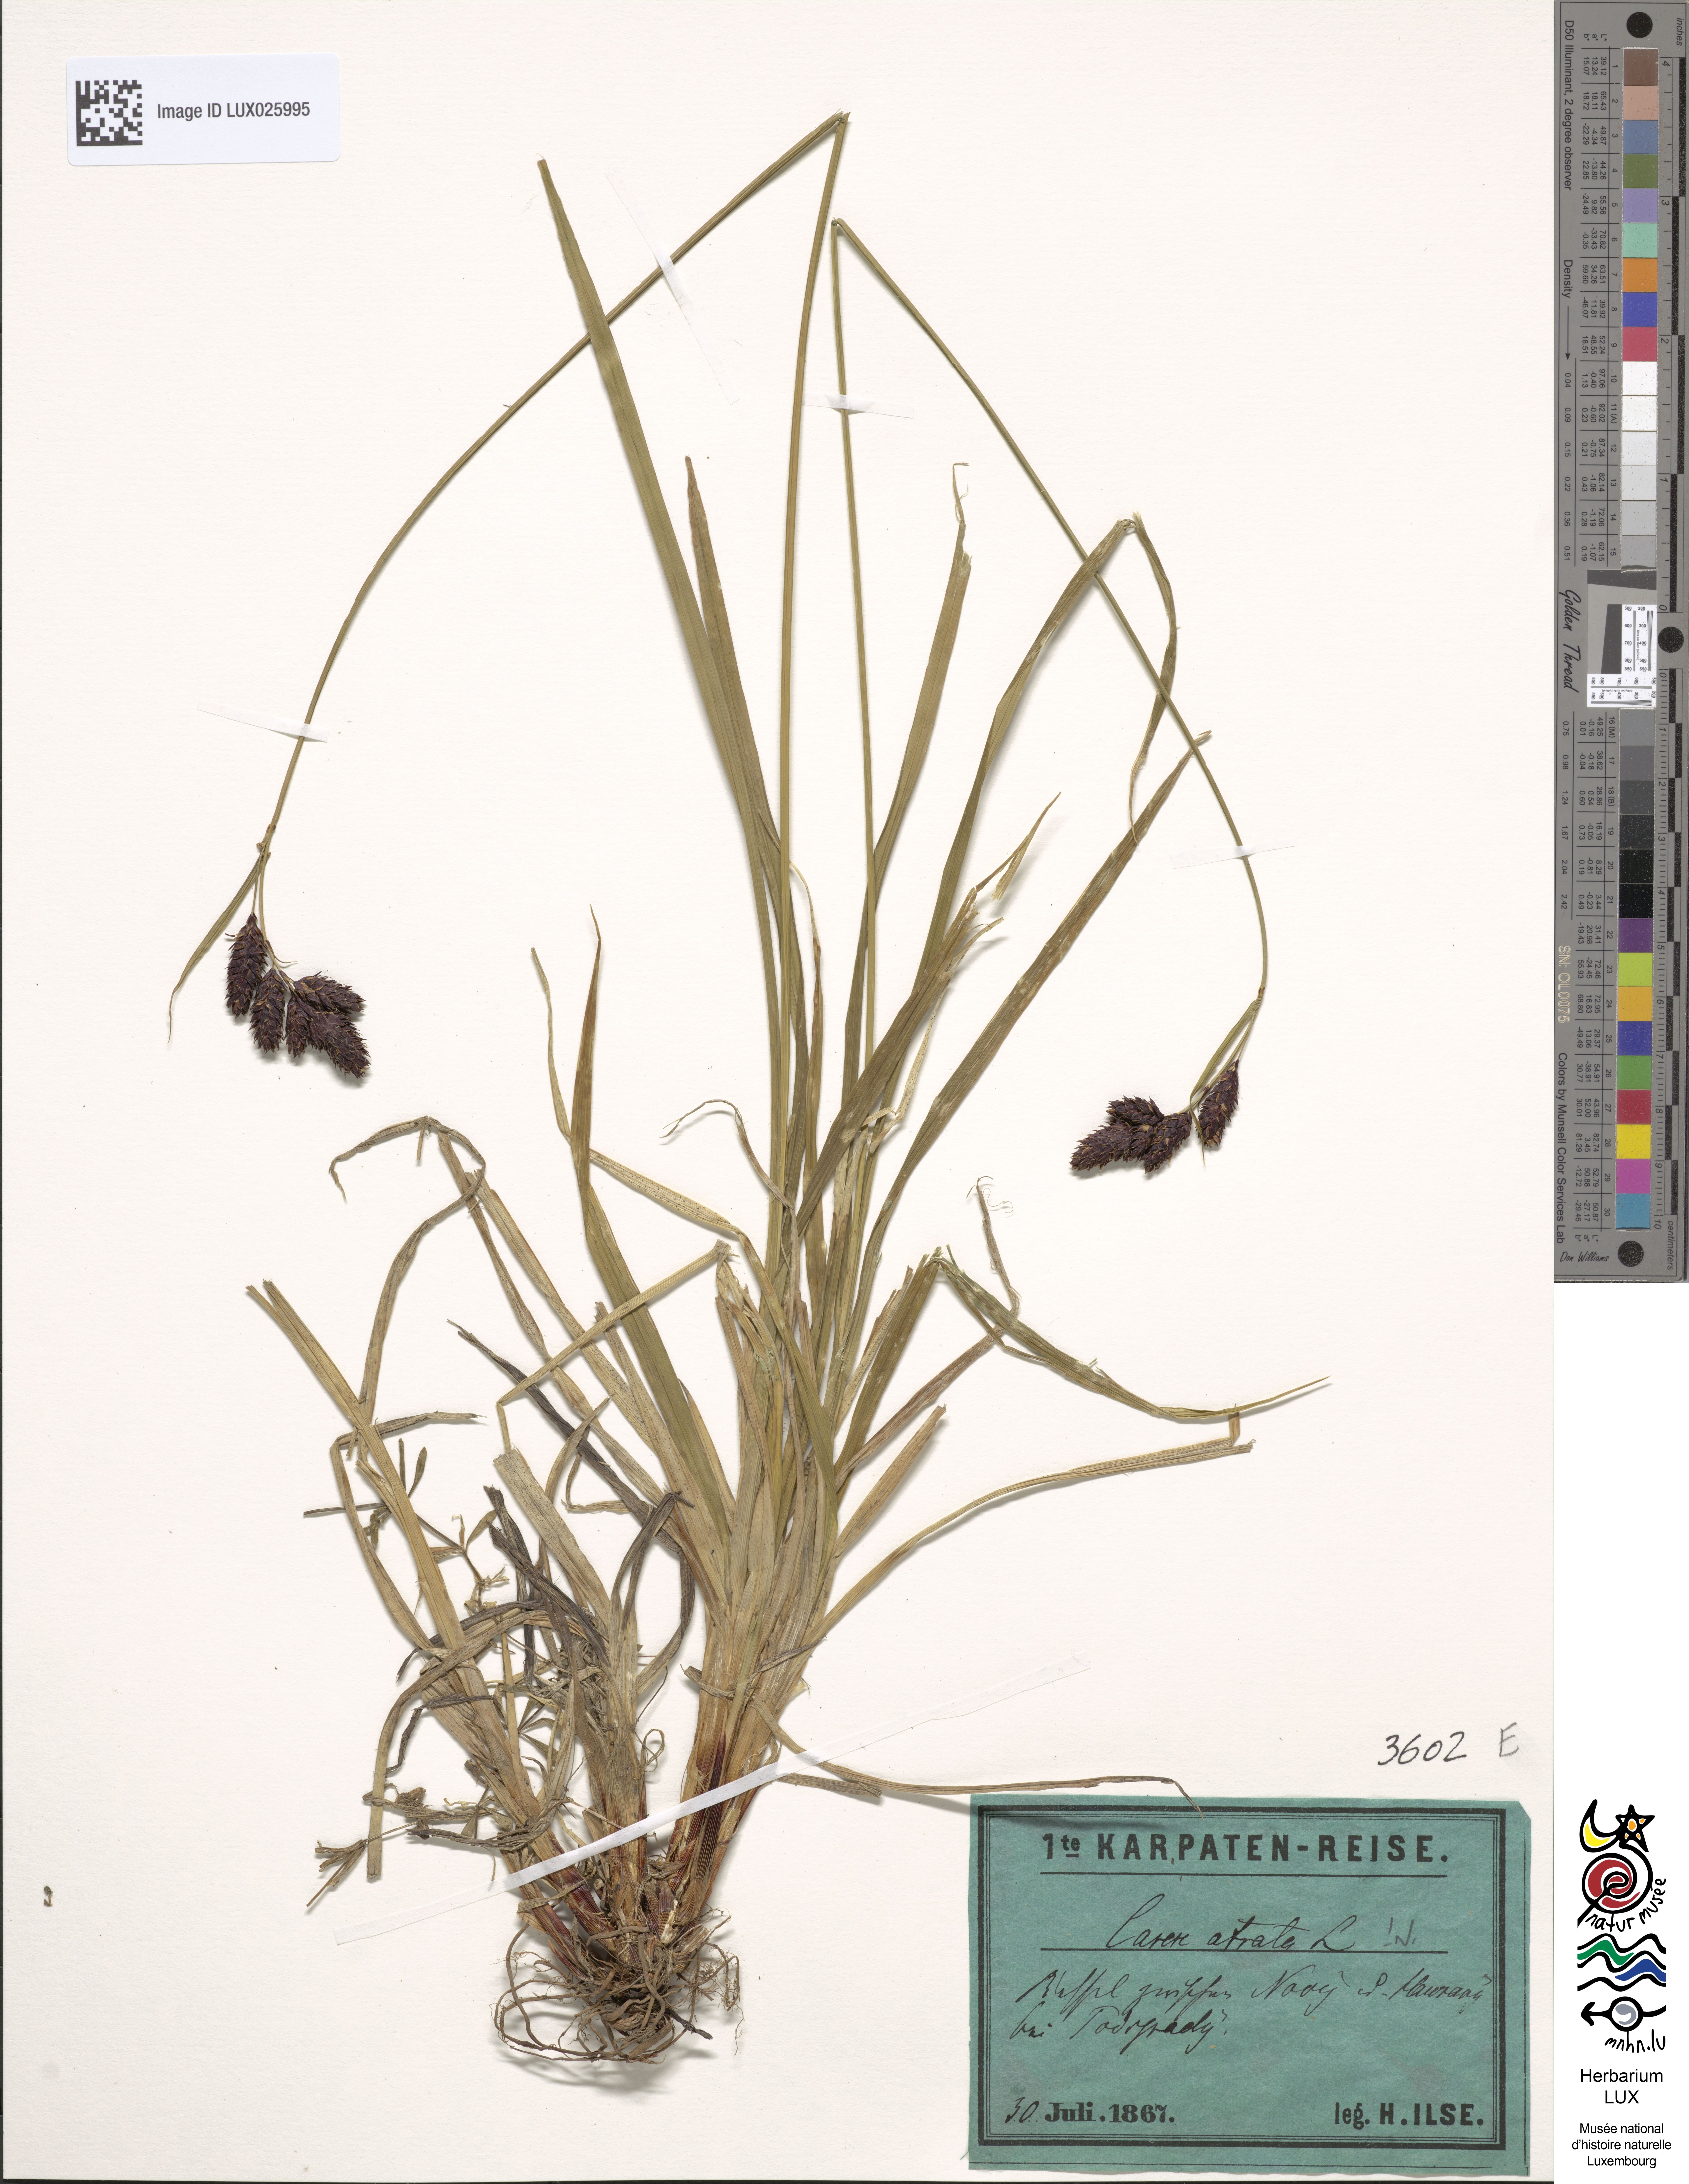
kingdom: Plantae
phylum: Tracheophyta
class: Liliopsida
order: Poales
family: Cyperaceae
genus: Carex
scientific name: Carex atrata
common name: Black alpine sedge
